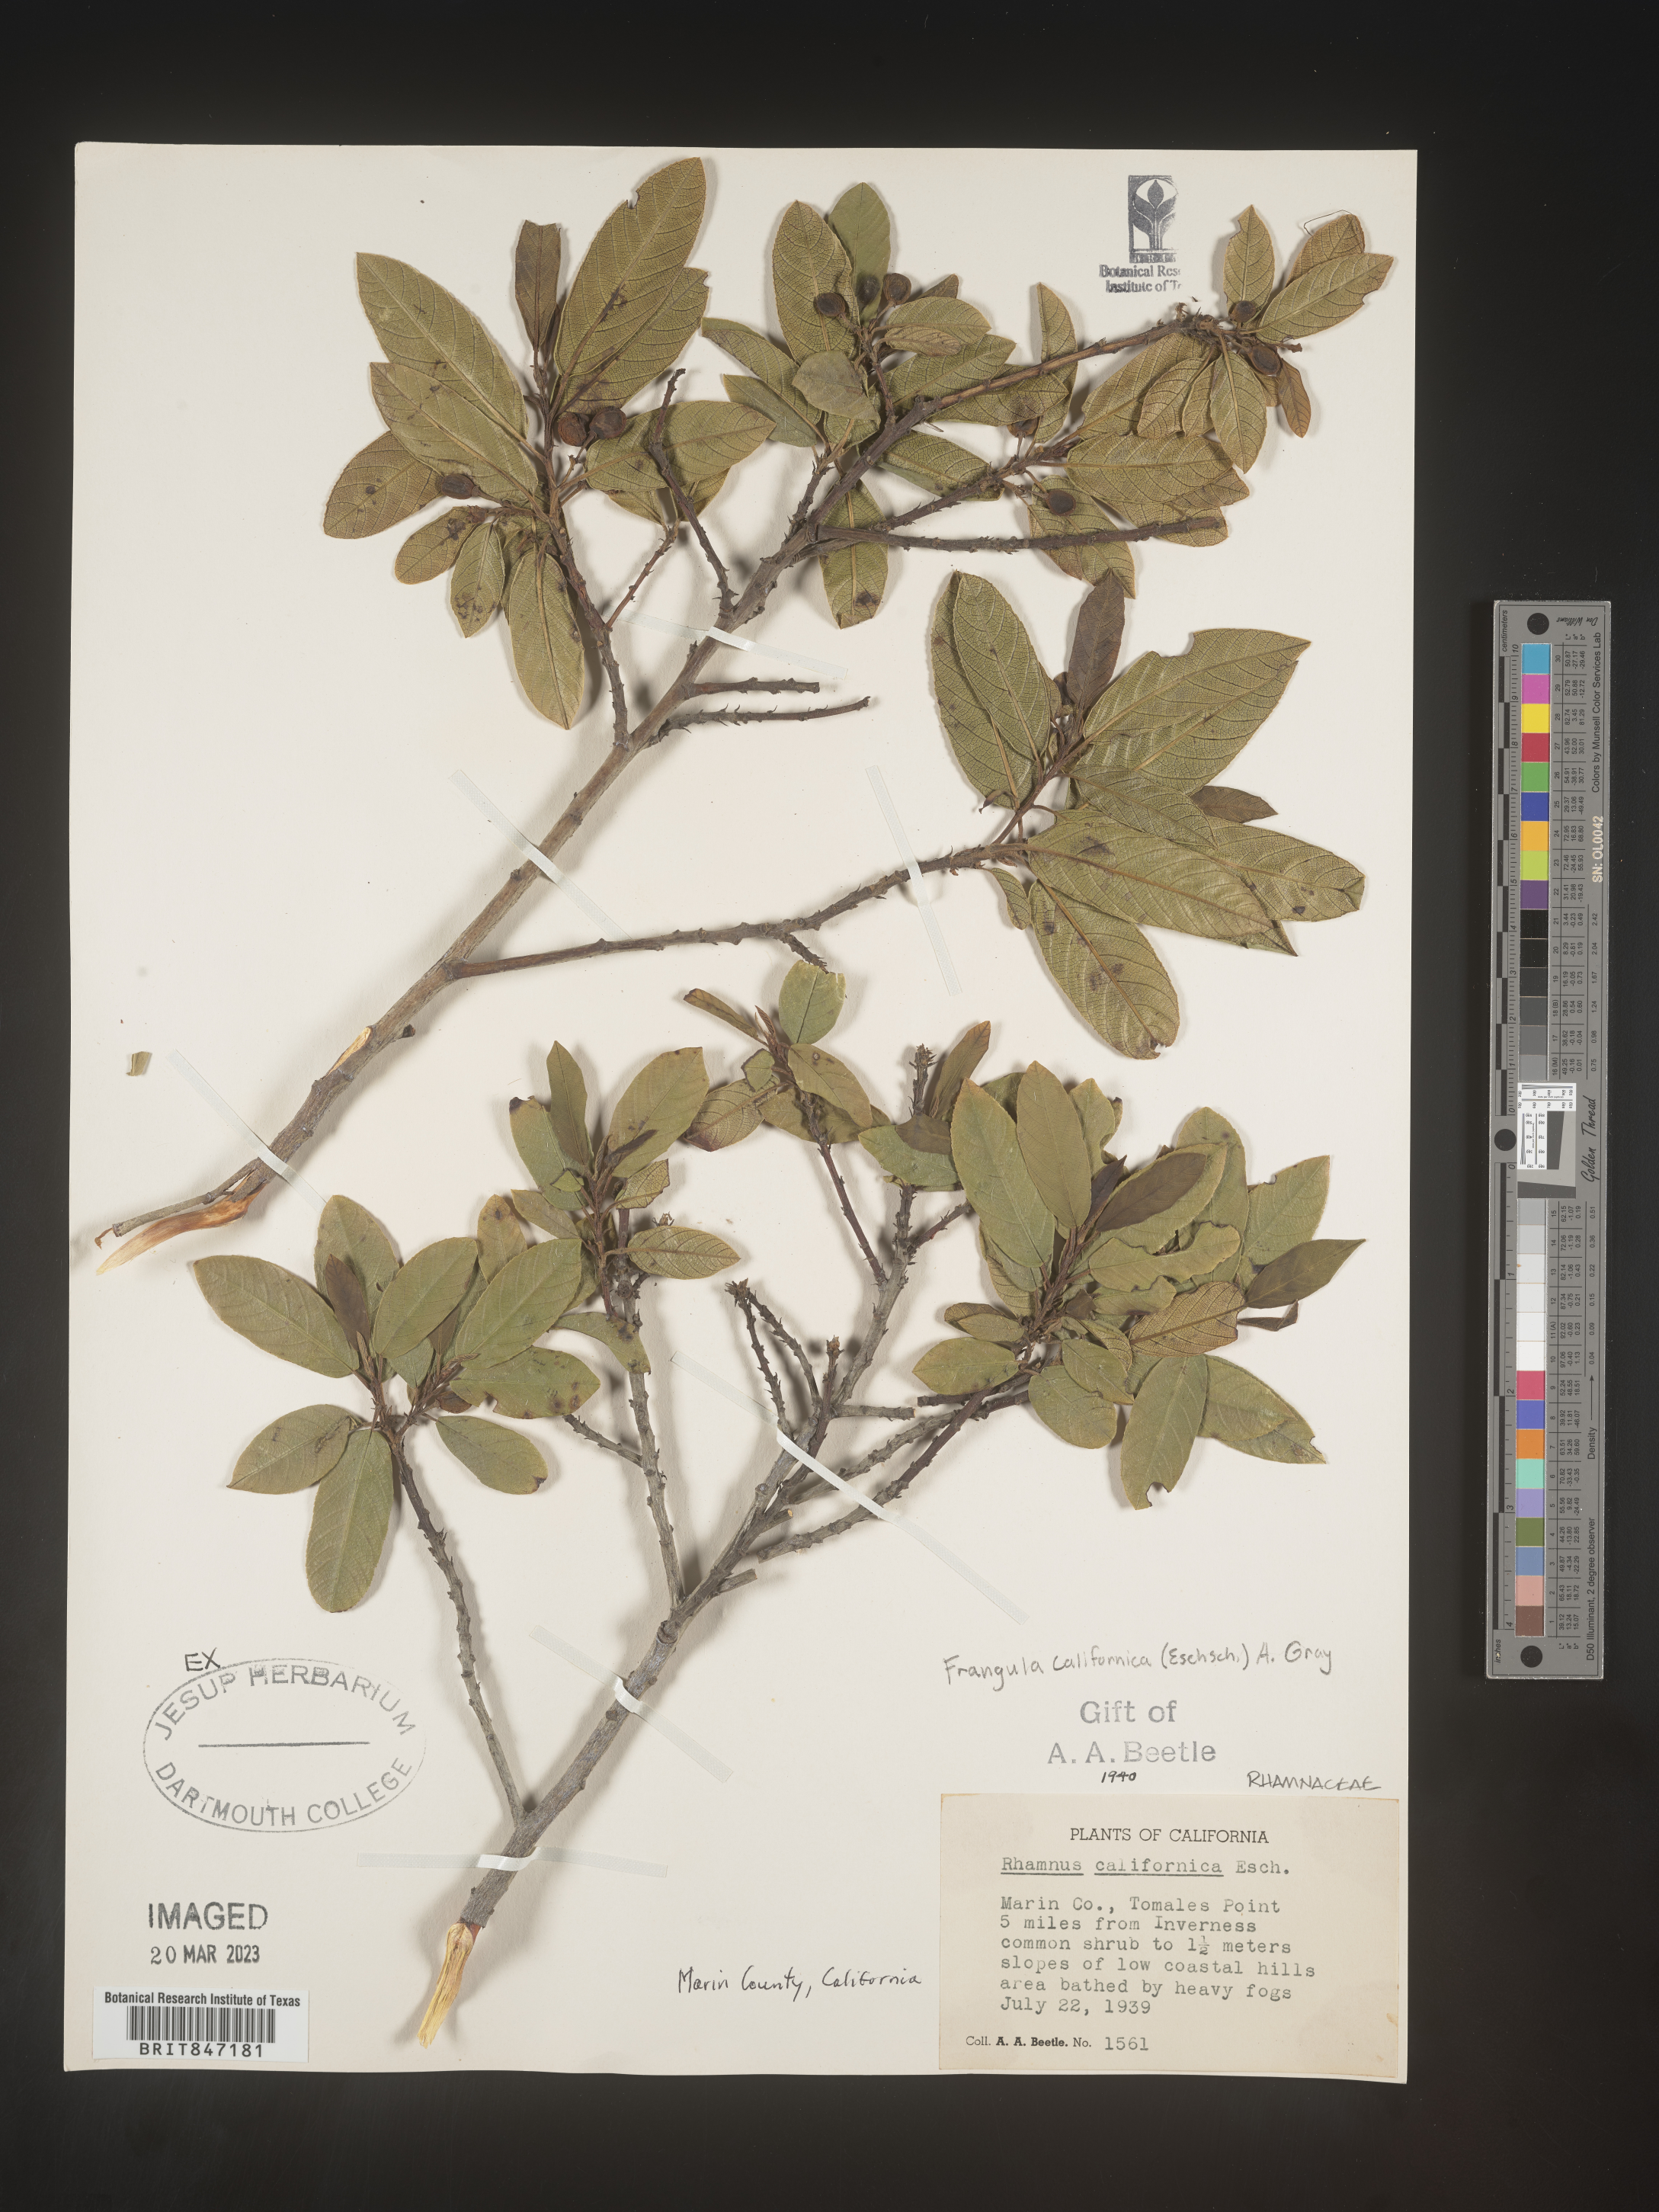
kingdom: Plantae
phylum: Tracheophyta
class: Magnoliopsida
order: Rosales
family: Rhamnaceae
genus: Frangula
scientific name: Frangula
